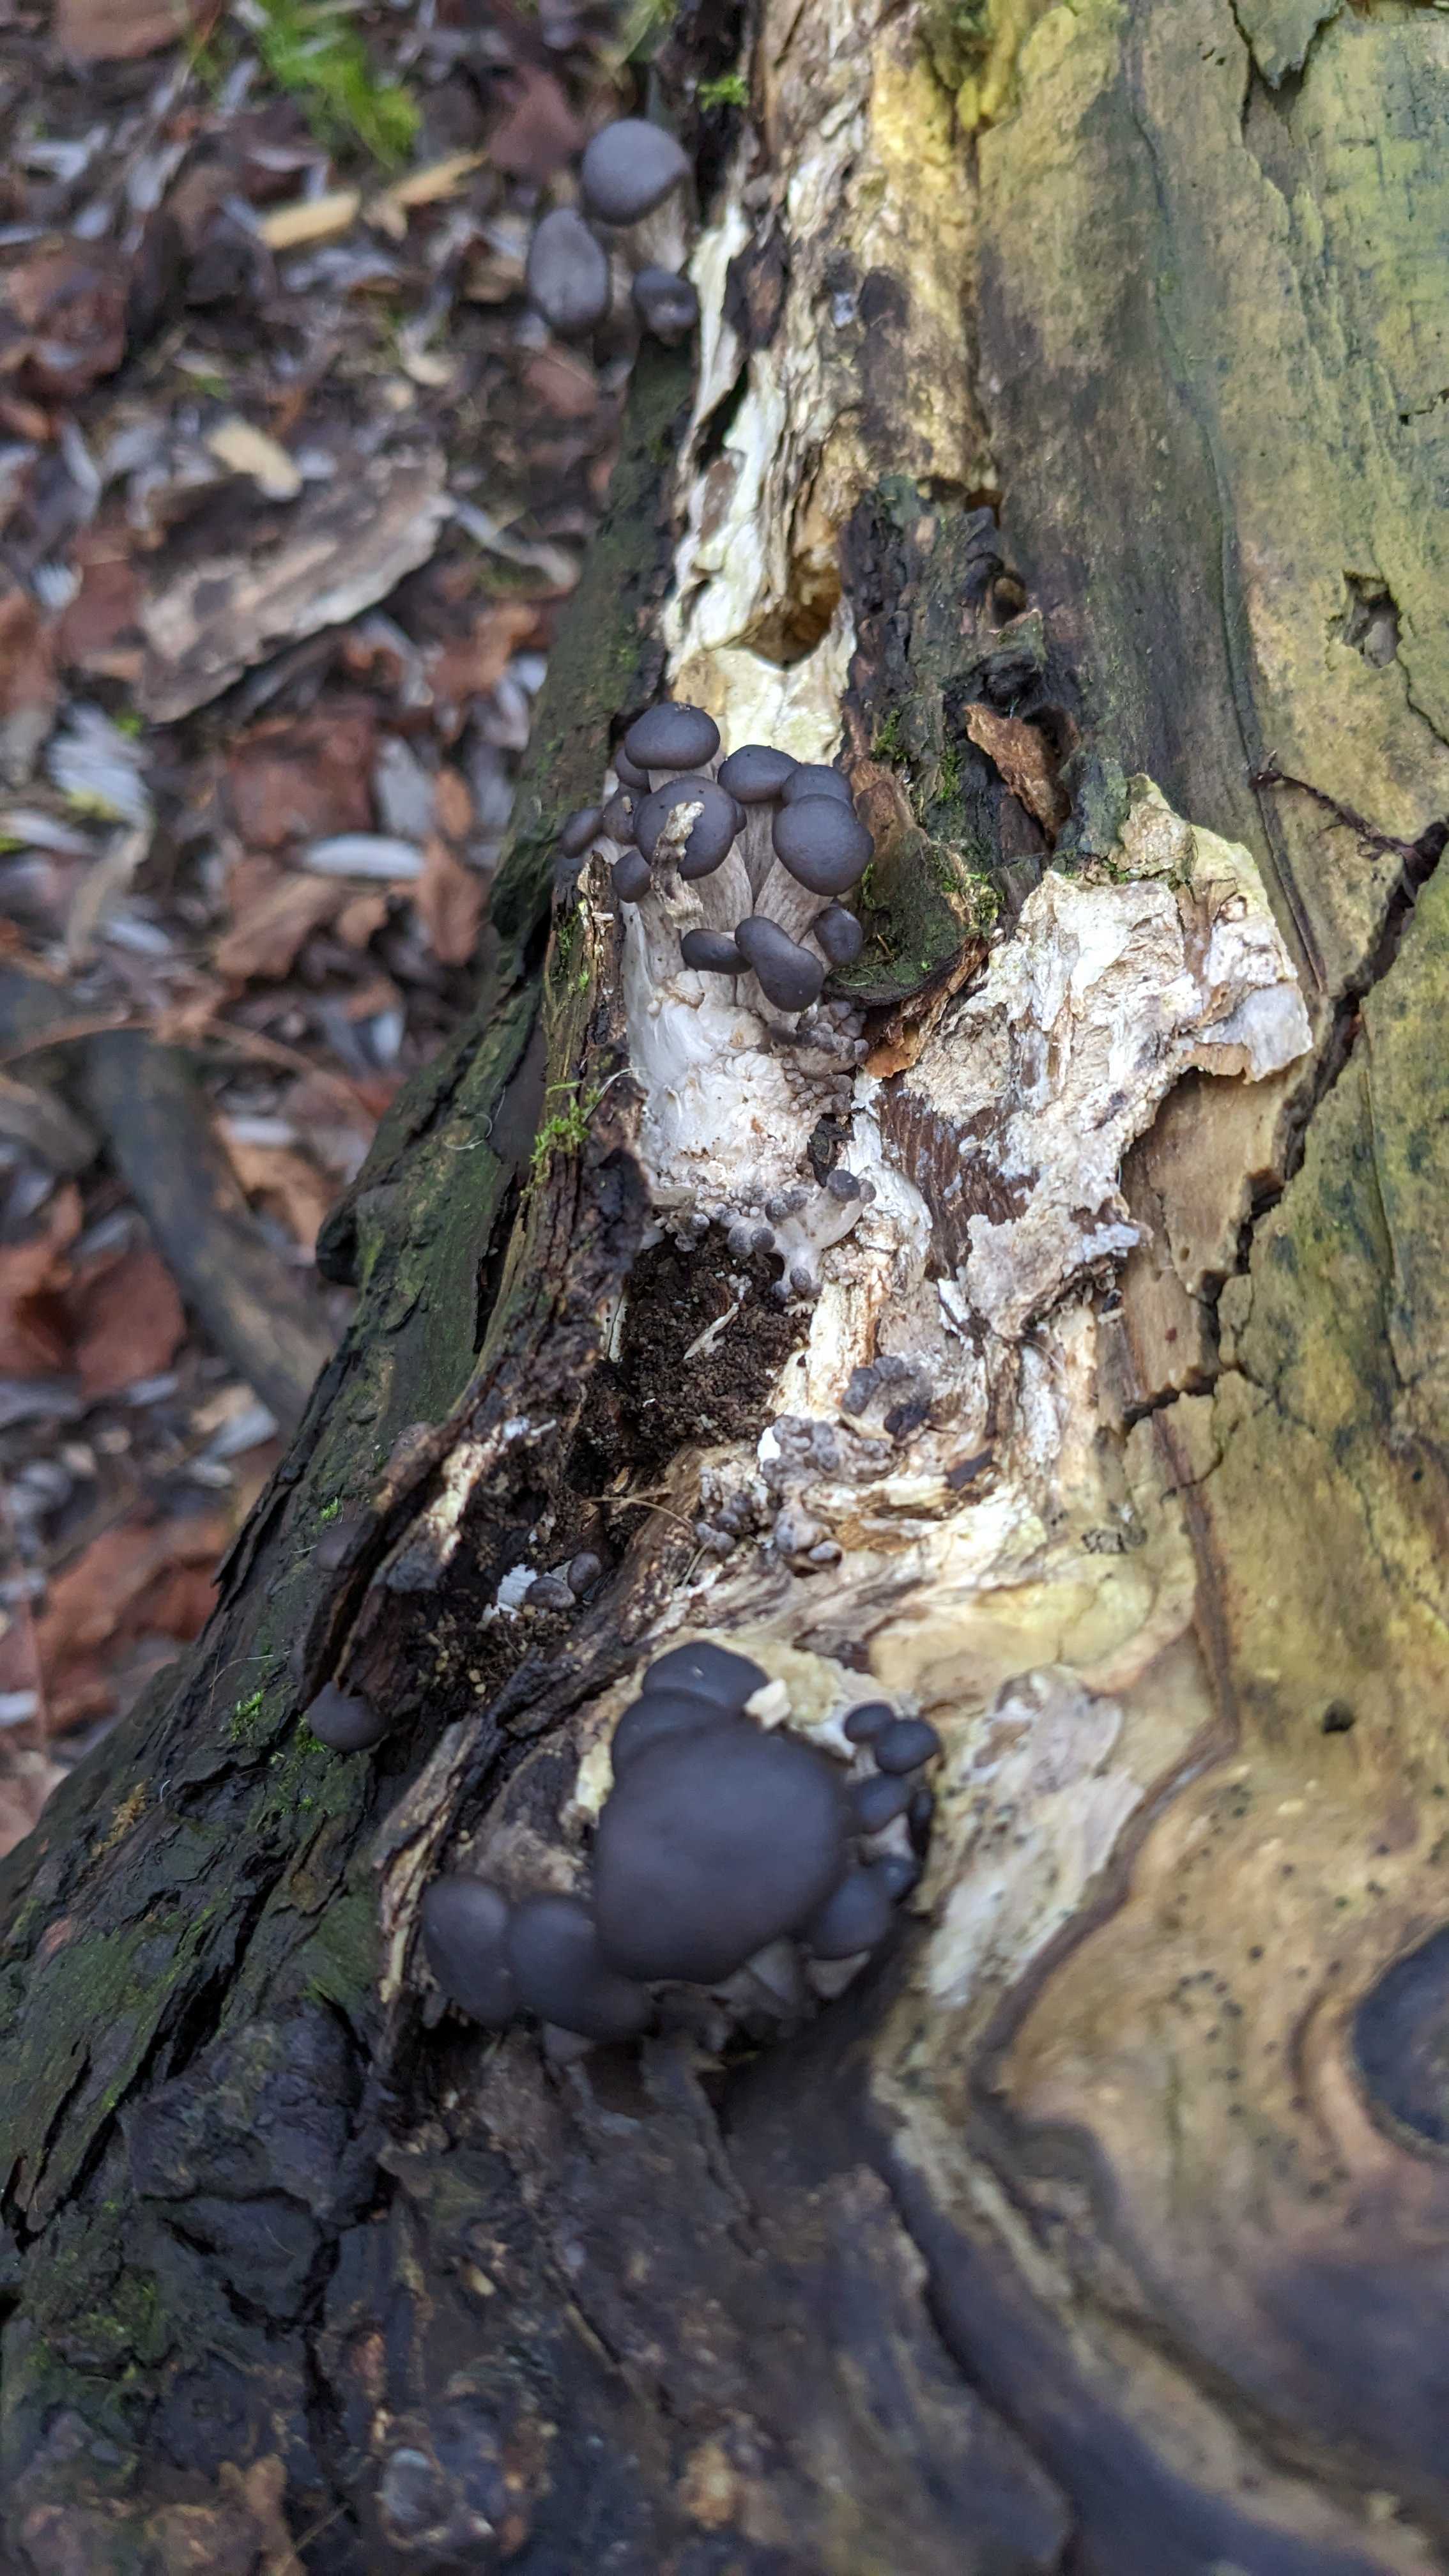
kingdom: Fungi
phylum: Basidiomycota
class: Agaricomycetes
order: Agaricales
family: Pleurotaceae
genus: Pleurotus
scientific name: Pleurotus ostreatus
